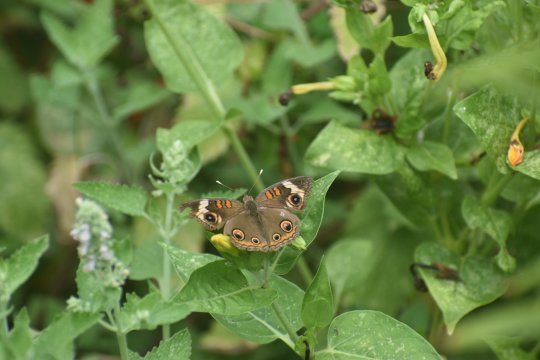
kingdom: Animalia
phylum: Arthropoda
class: Insecta
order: Lepidoptera
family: Nymphalidae
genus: Junonia
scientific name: Junonia coenia
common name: Common Buckeye
